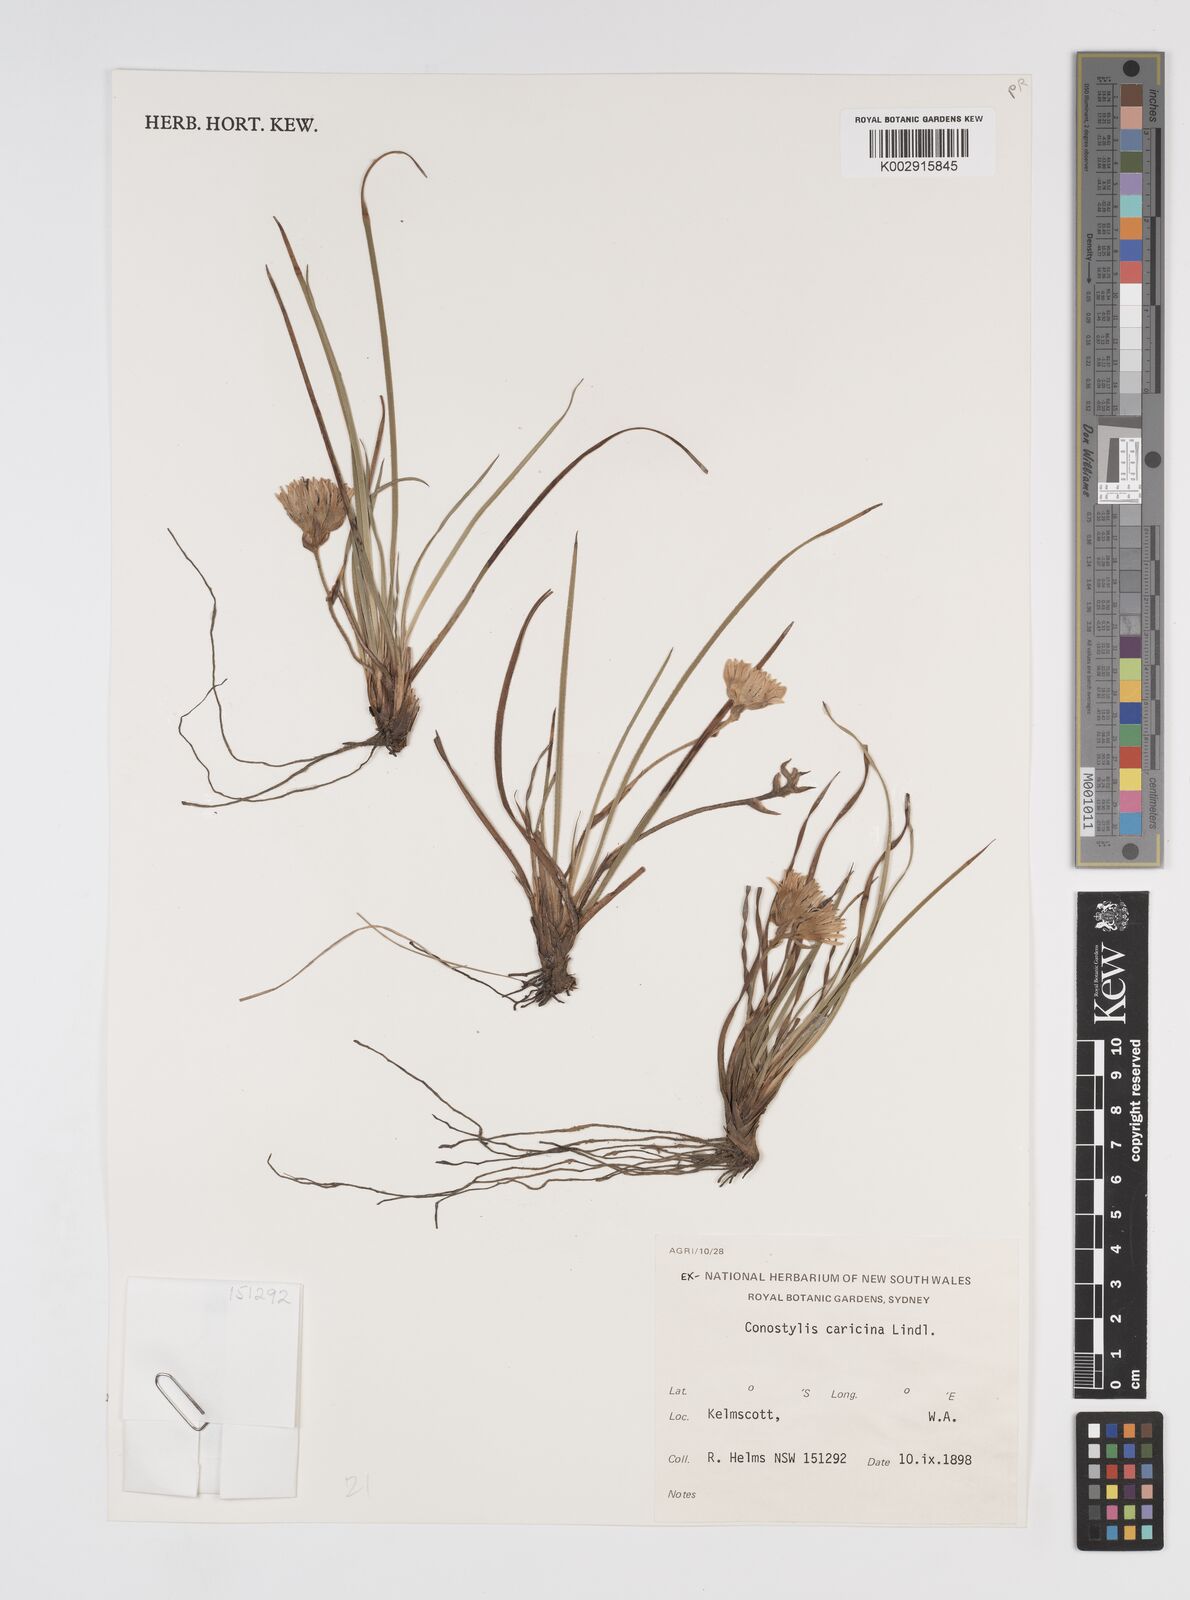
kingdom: Plantae
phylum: Tracheophyta
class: Liliopsida
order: Commelinales
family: Haemodoraceae
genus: Conostylis
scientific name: Conostylis caricina
